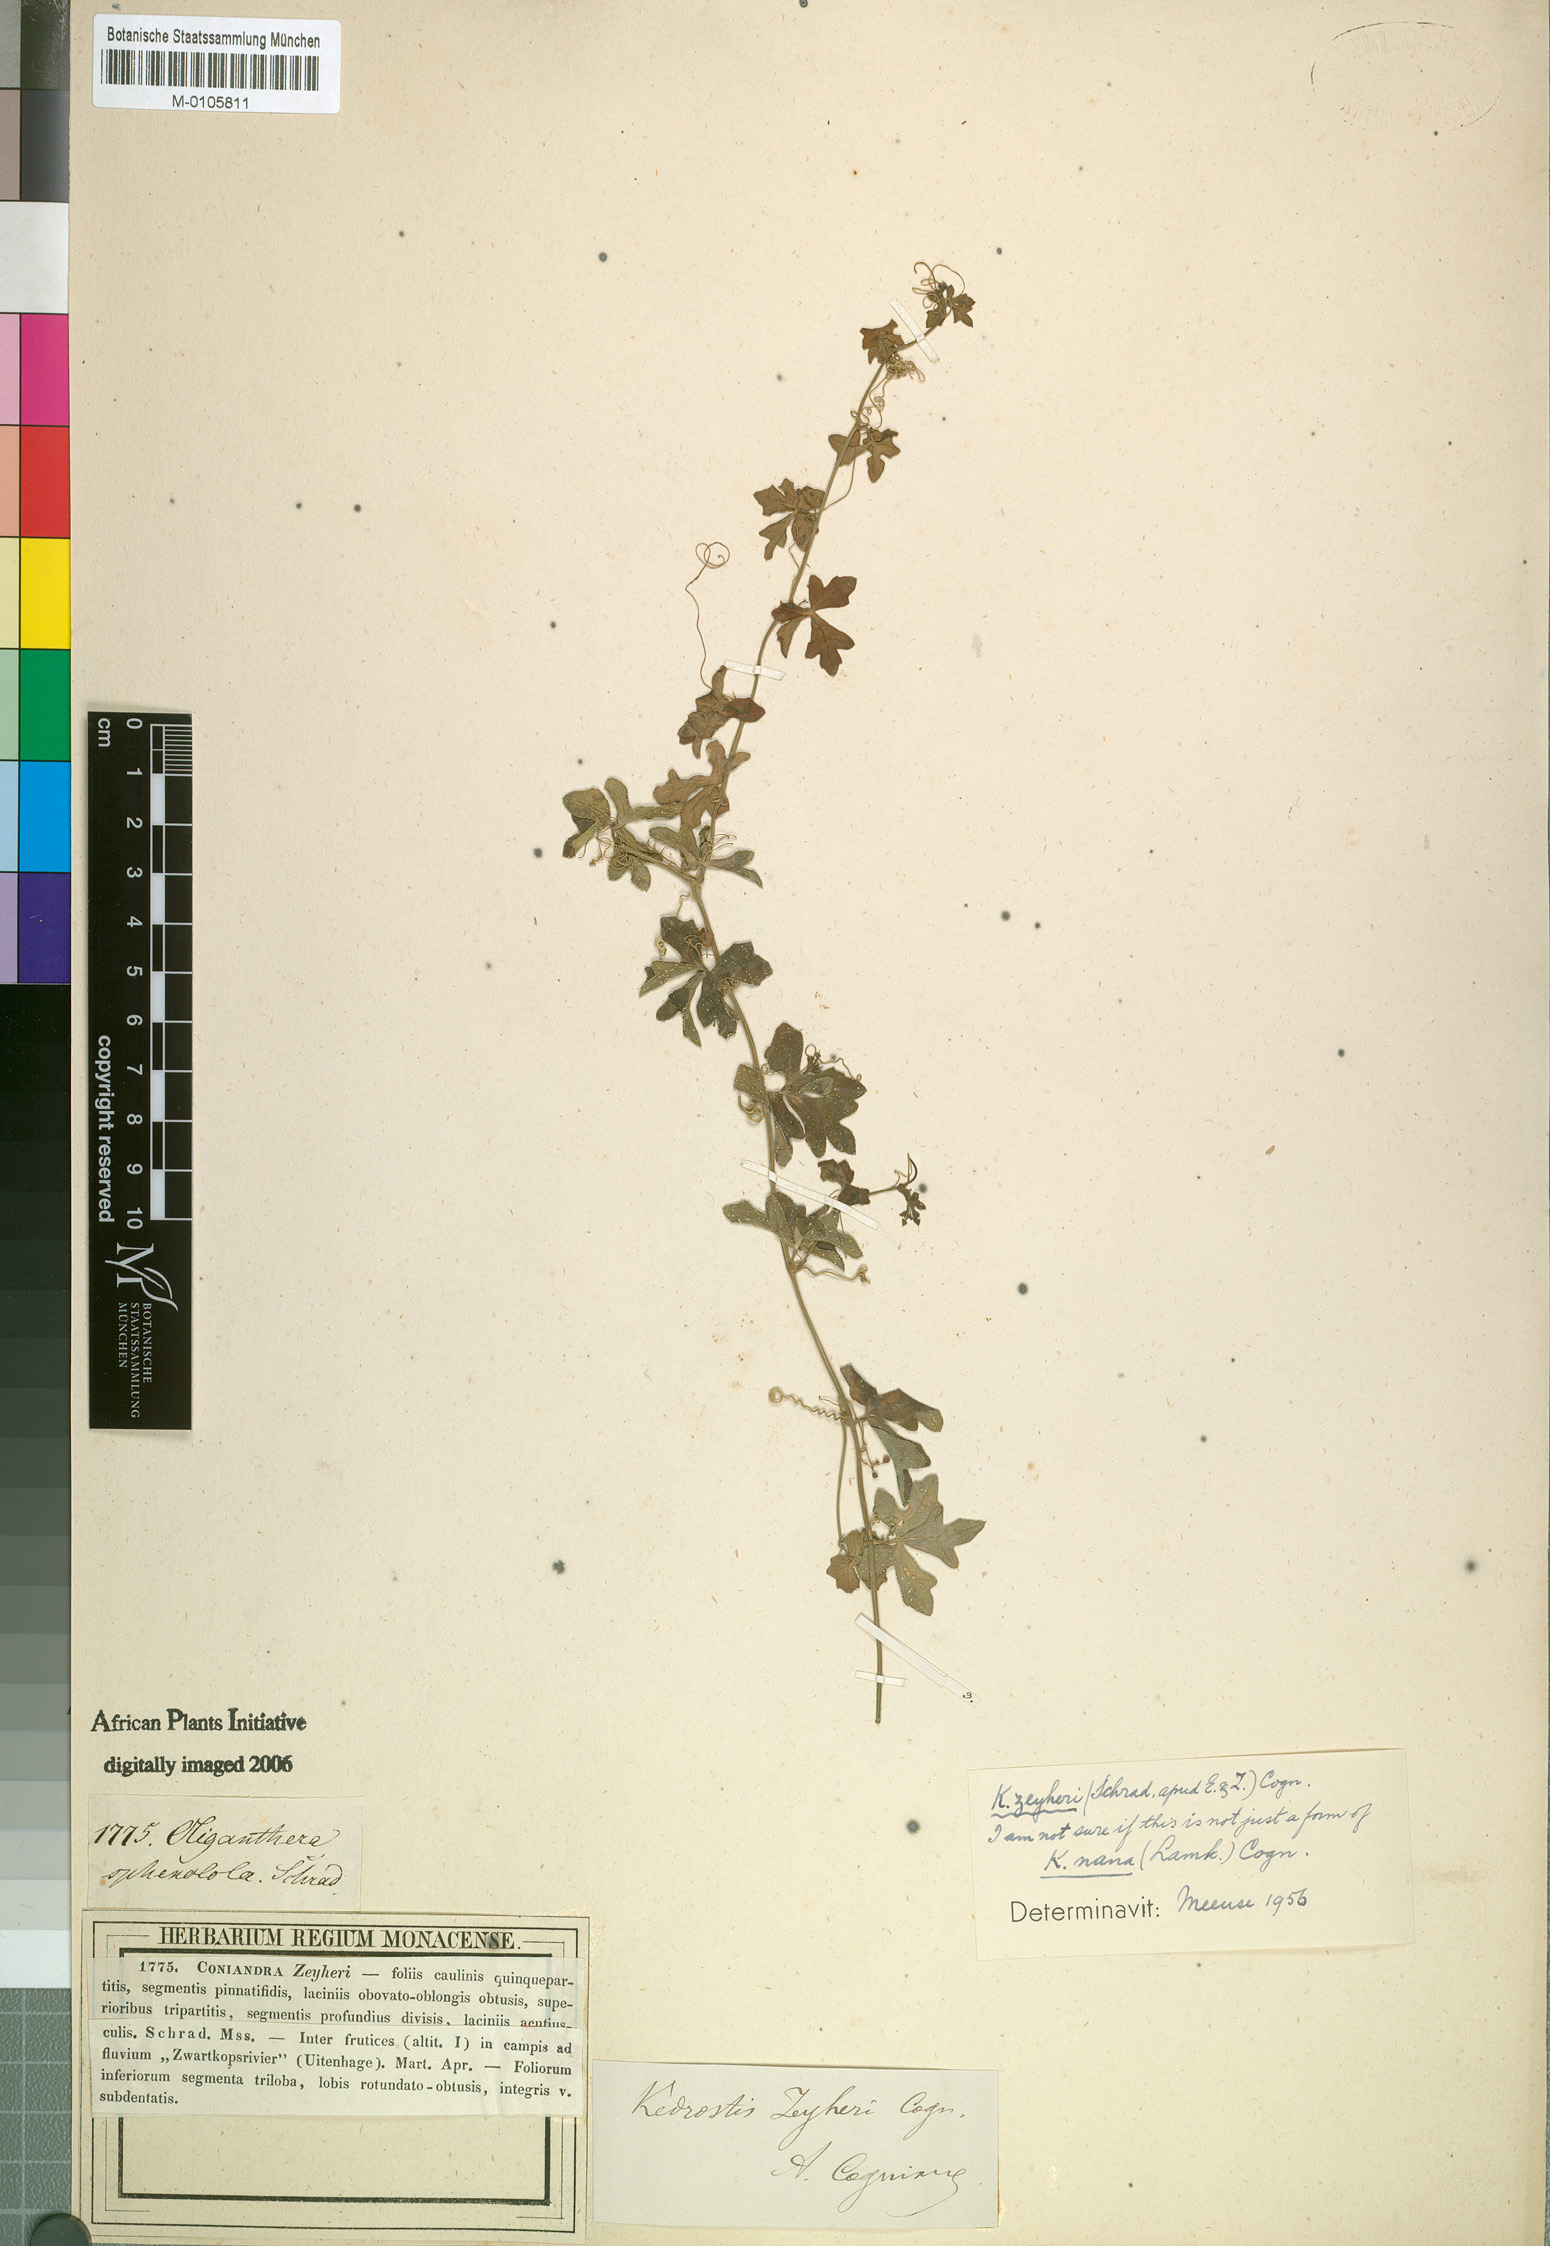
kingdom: Plantae
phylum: Tracheophyta
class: Magnoliopsida
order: Cucurbitales
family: Cucurbitaceae
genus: Kedrostis
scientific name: Kedrostis nana
